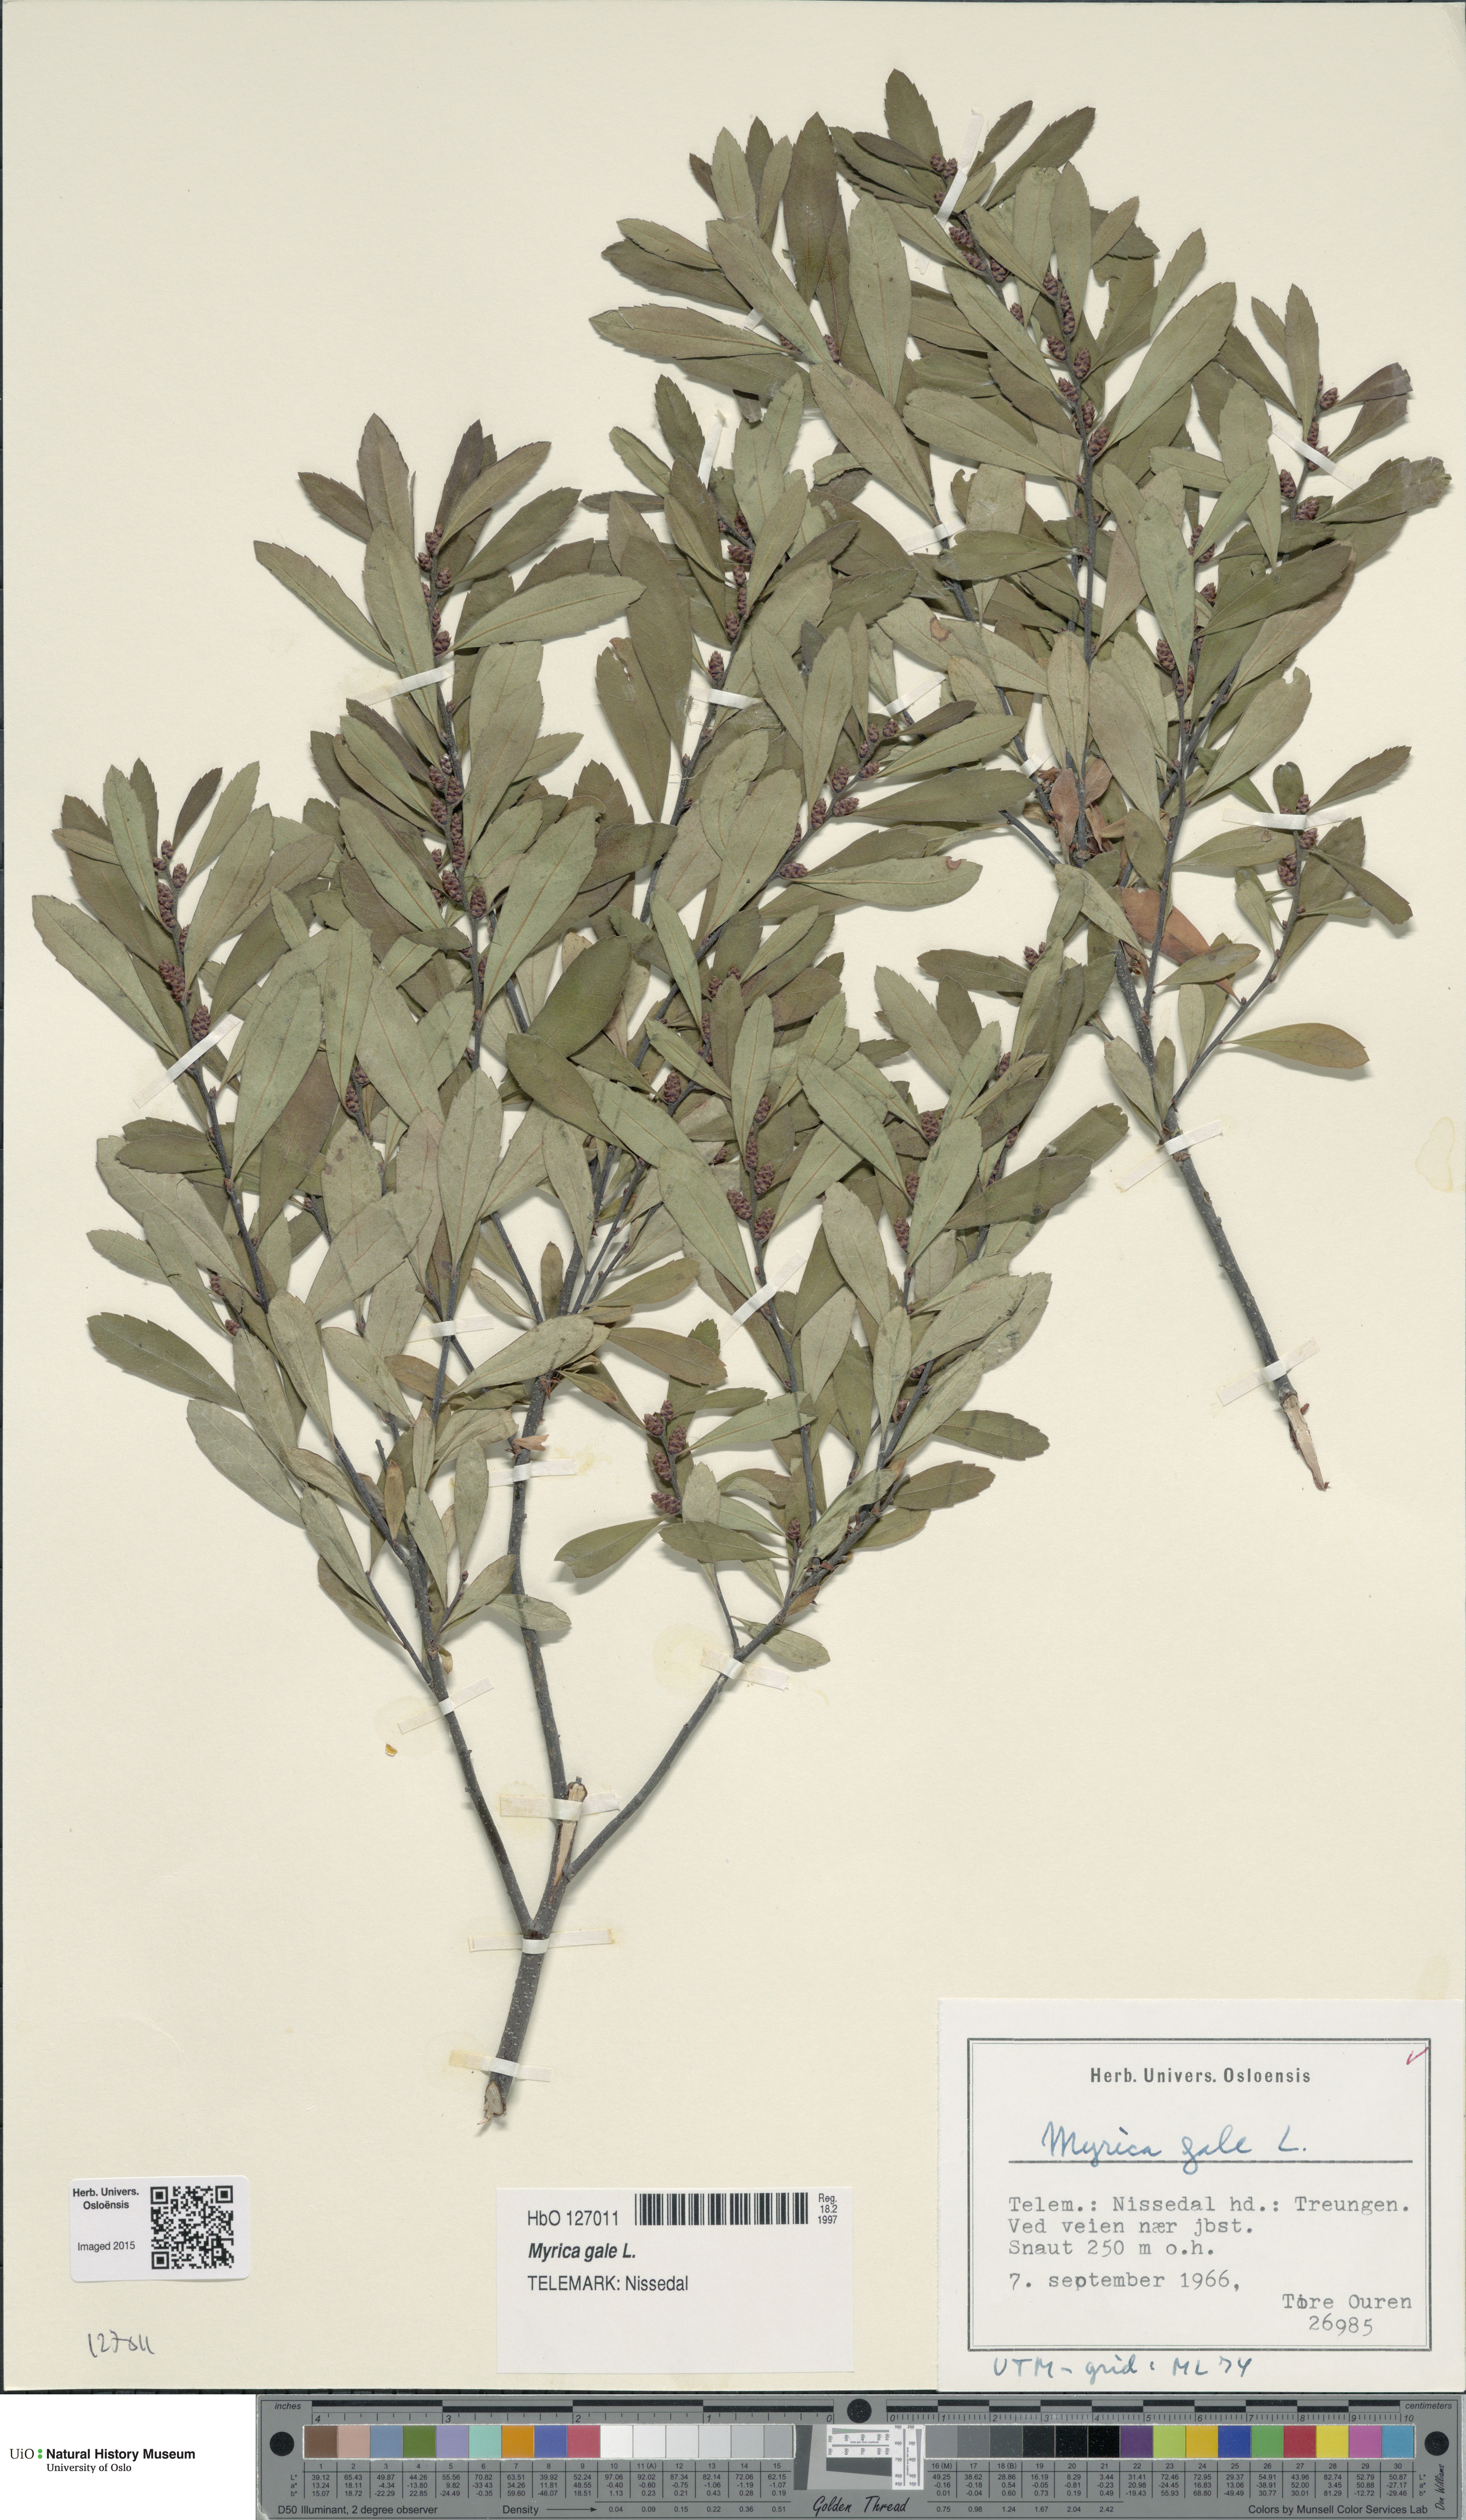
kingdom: Plantae
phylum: Tracheophyta
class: Magnoliopsida
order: Fagales
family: Myricaceae
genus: Myrica
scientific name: Myrica gale
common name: Sweet gale
